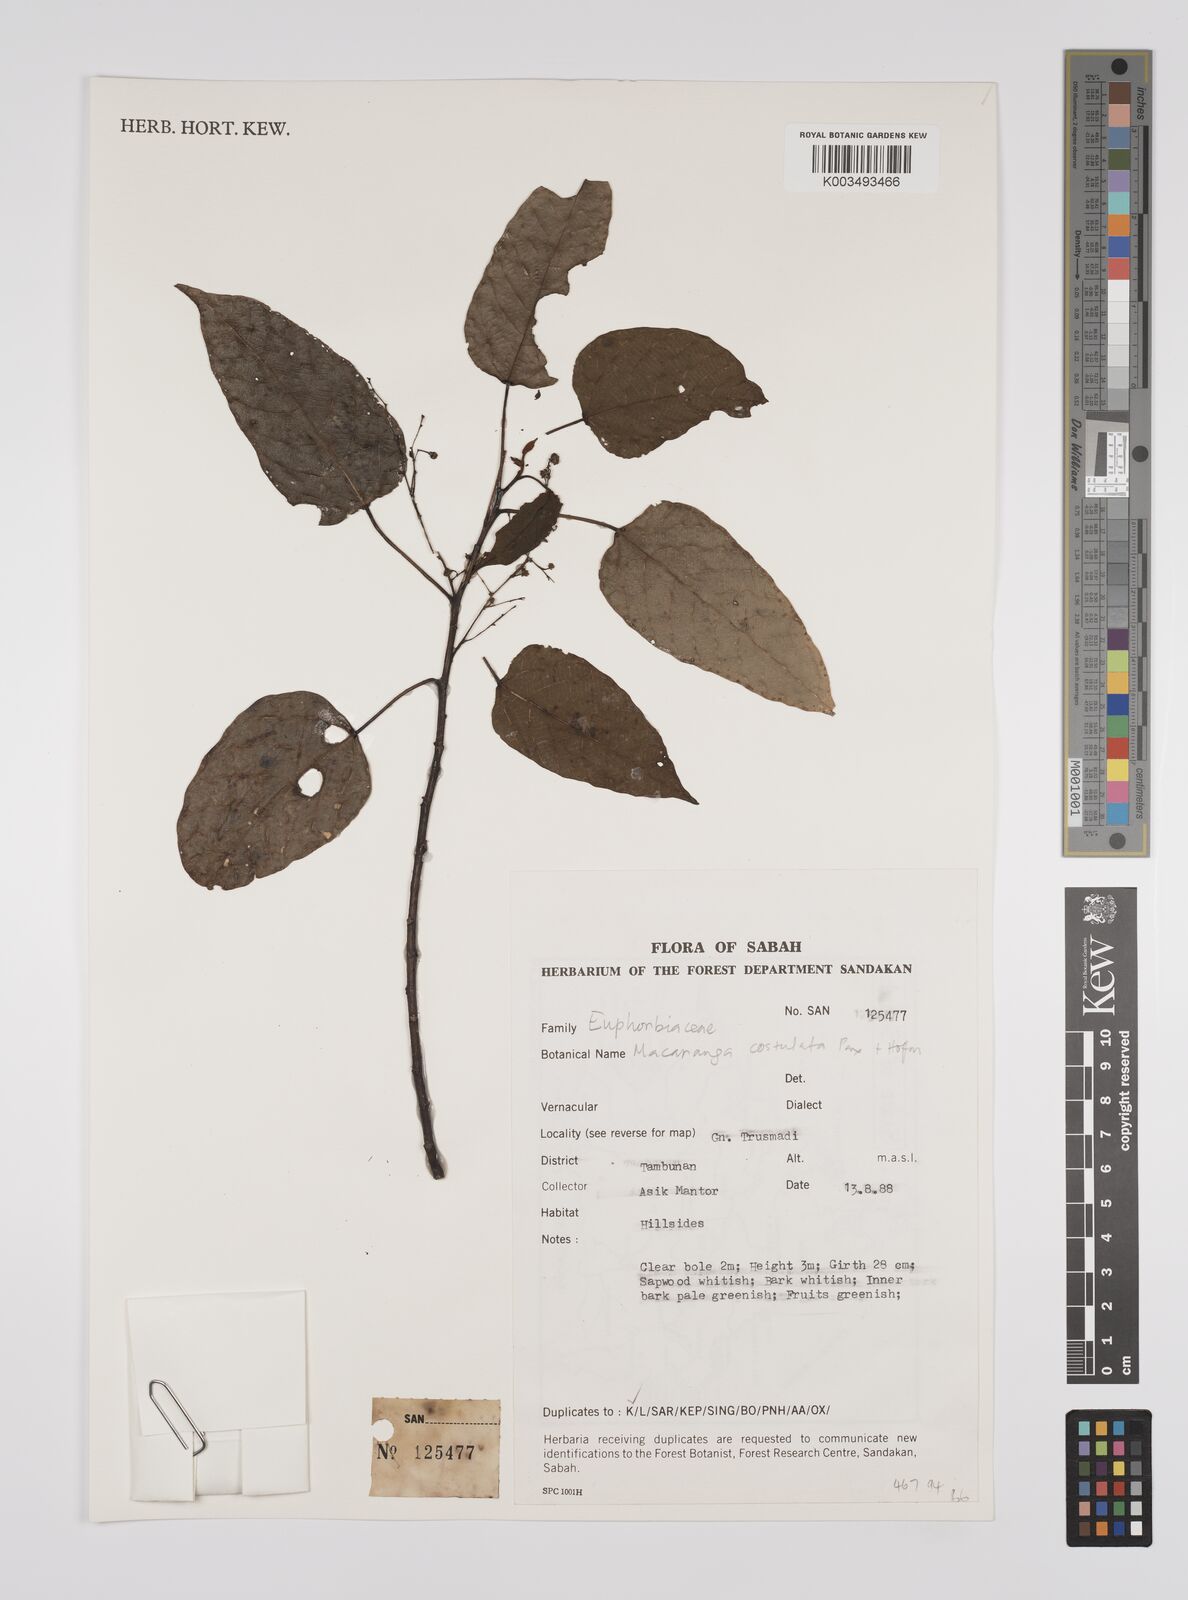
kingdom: Plantae
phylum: Tracheophyta
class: Magnoliopsida
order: Malpighiales
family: Euphorbiaceae
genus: Macaranga
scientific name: Macaranga costulata
